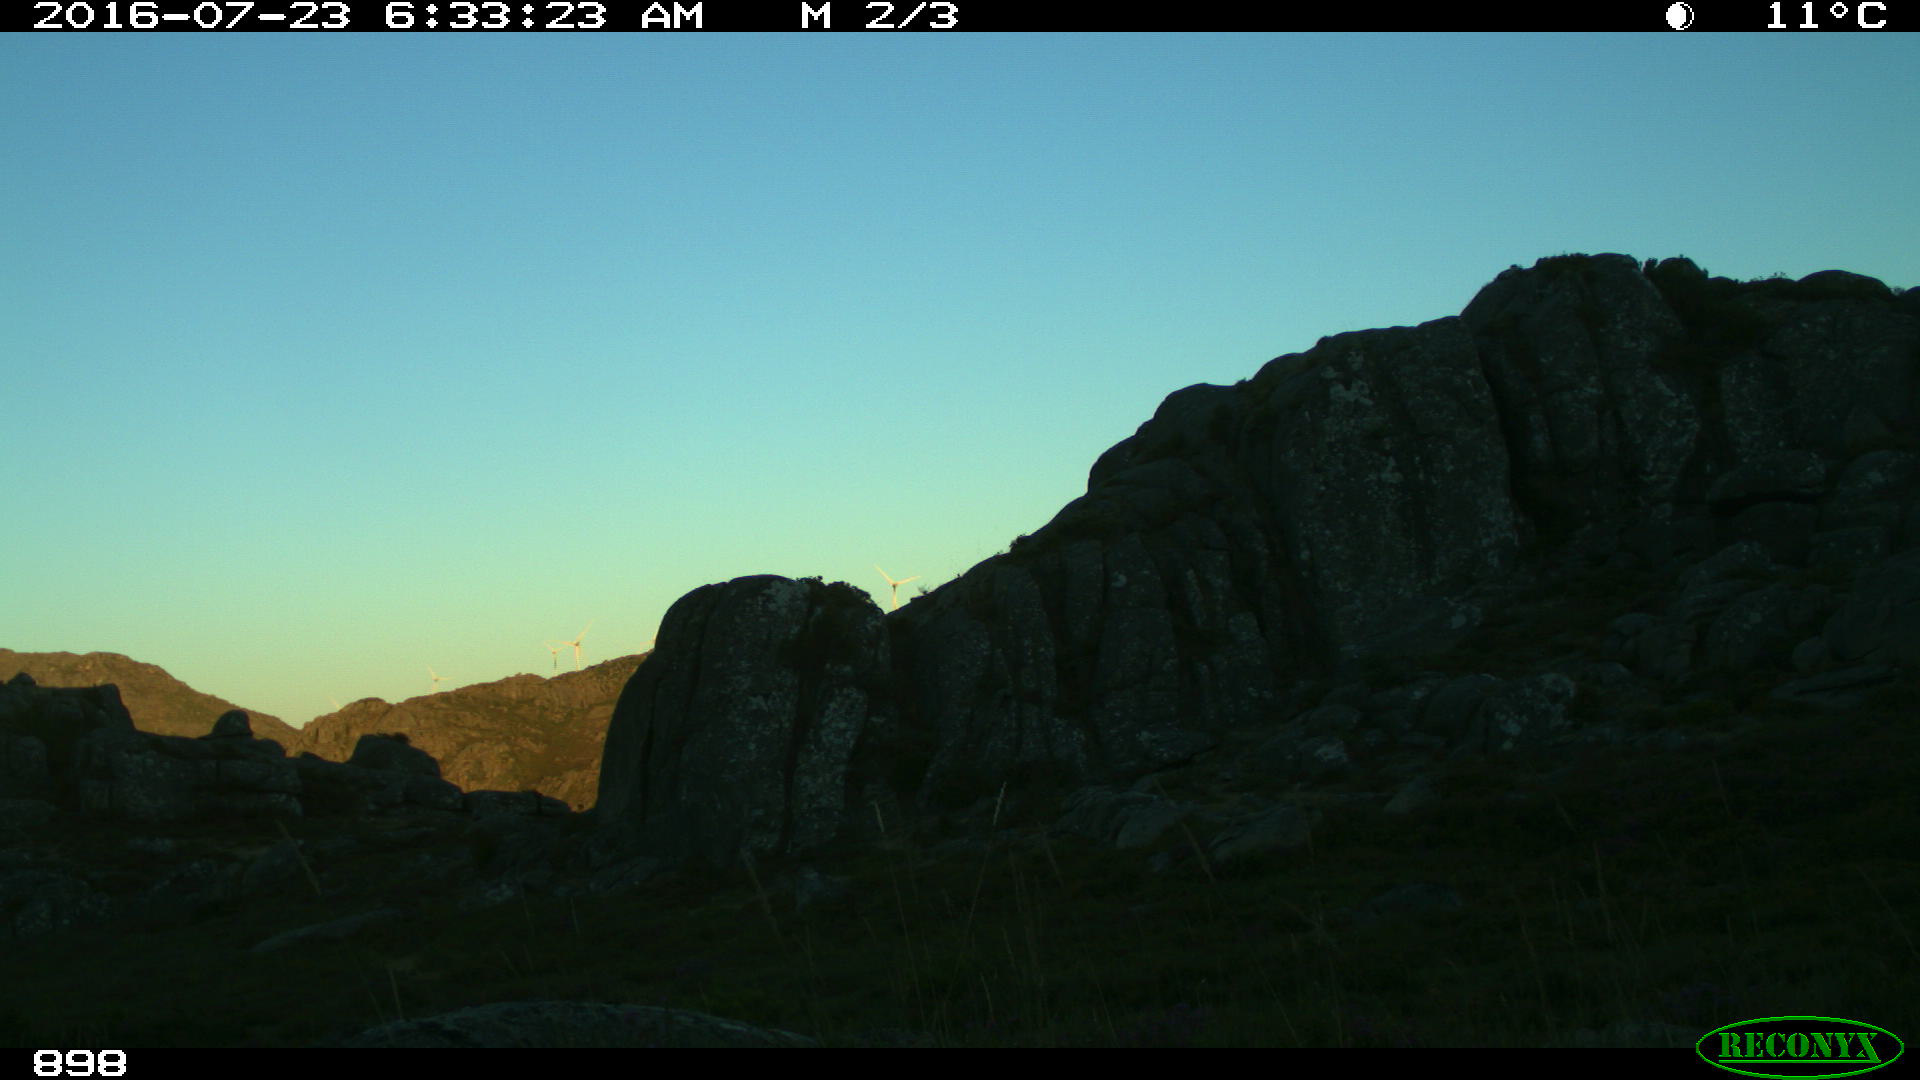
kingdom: Animalia
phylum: Chordata
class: Mammalia
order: Perissodactyla
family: Equidae
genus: Equus
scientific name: Equus caballus
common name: Horse
